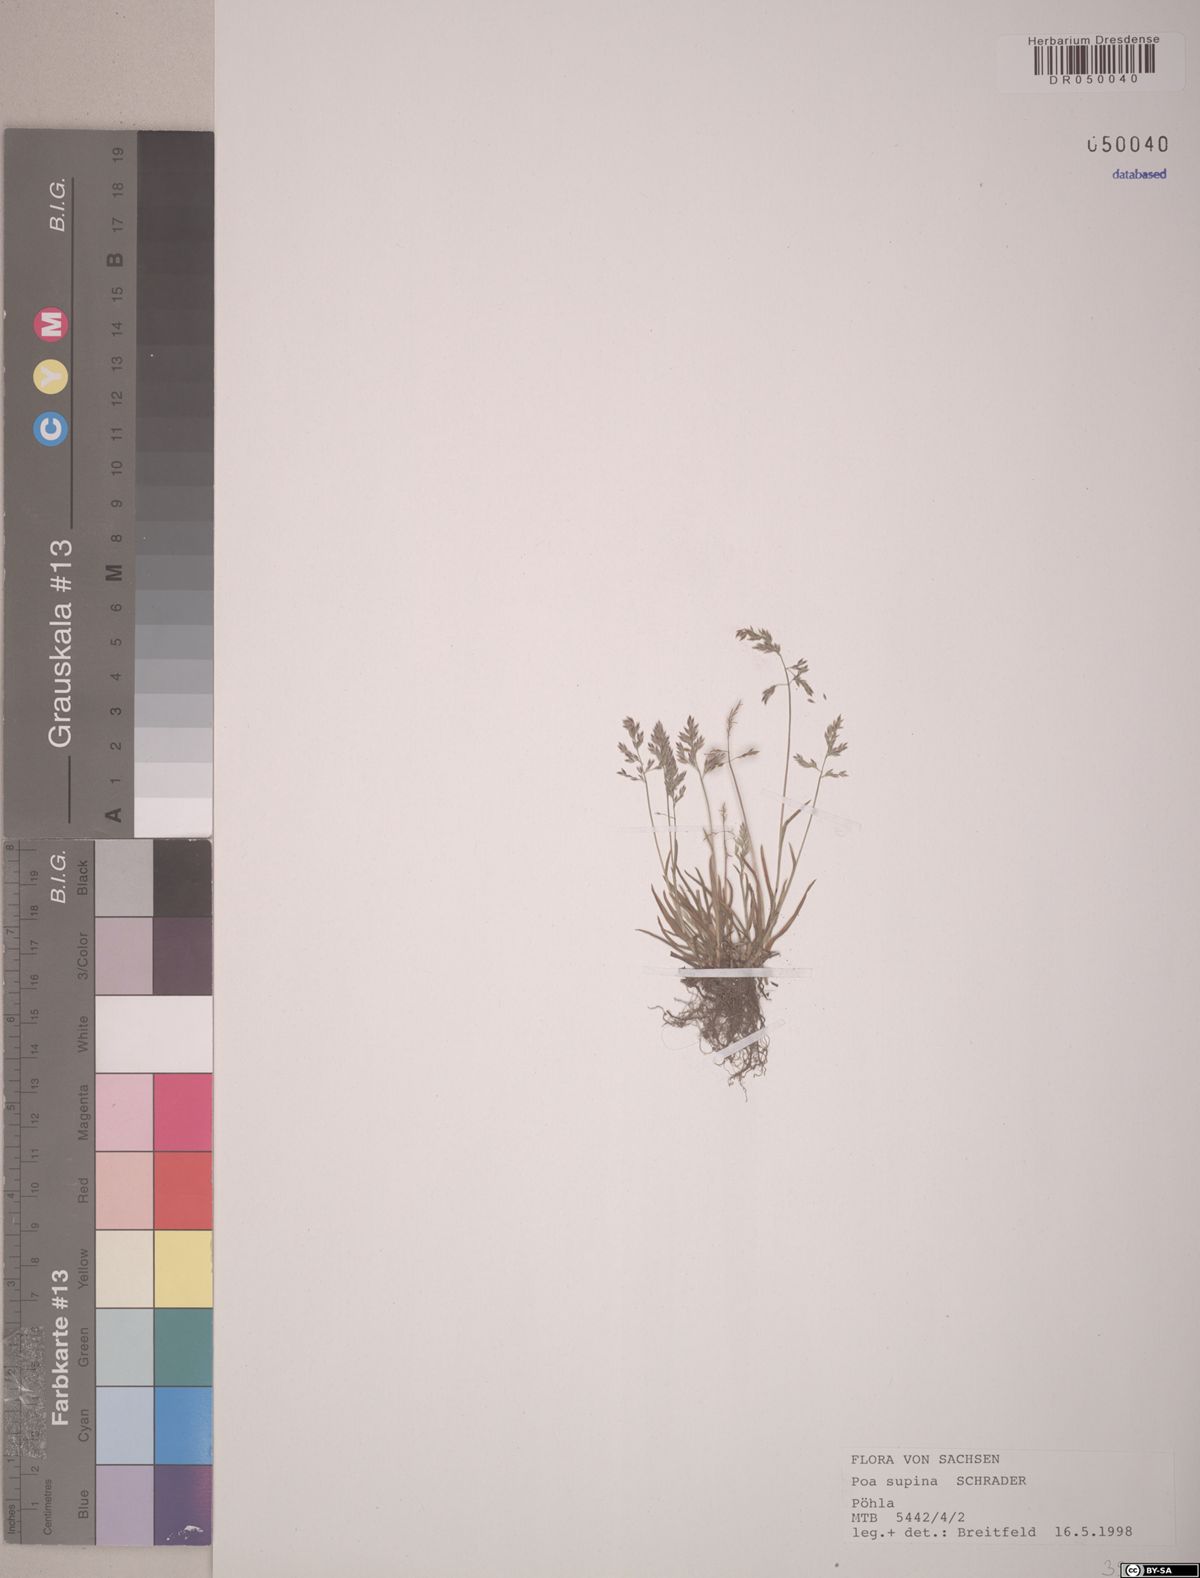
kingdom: Plantae
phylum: Tracheophyta
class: Liliopsida
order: Poales
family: Poaceae
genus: Poa
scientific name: Poa supina
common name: Supina bluegrass
